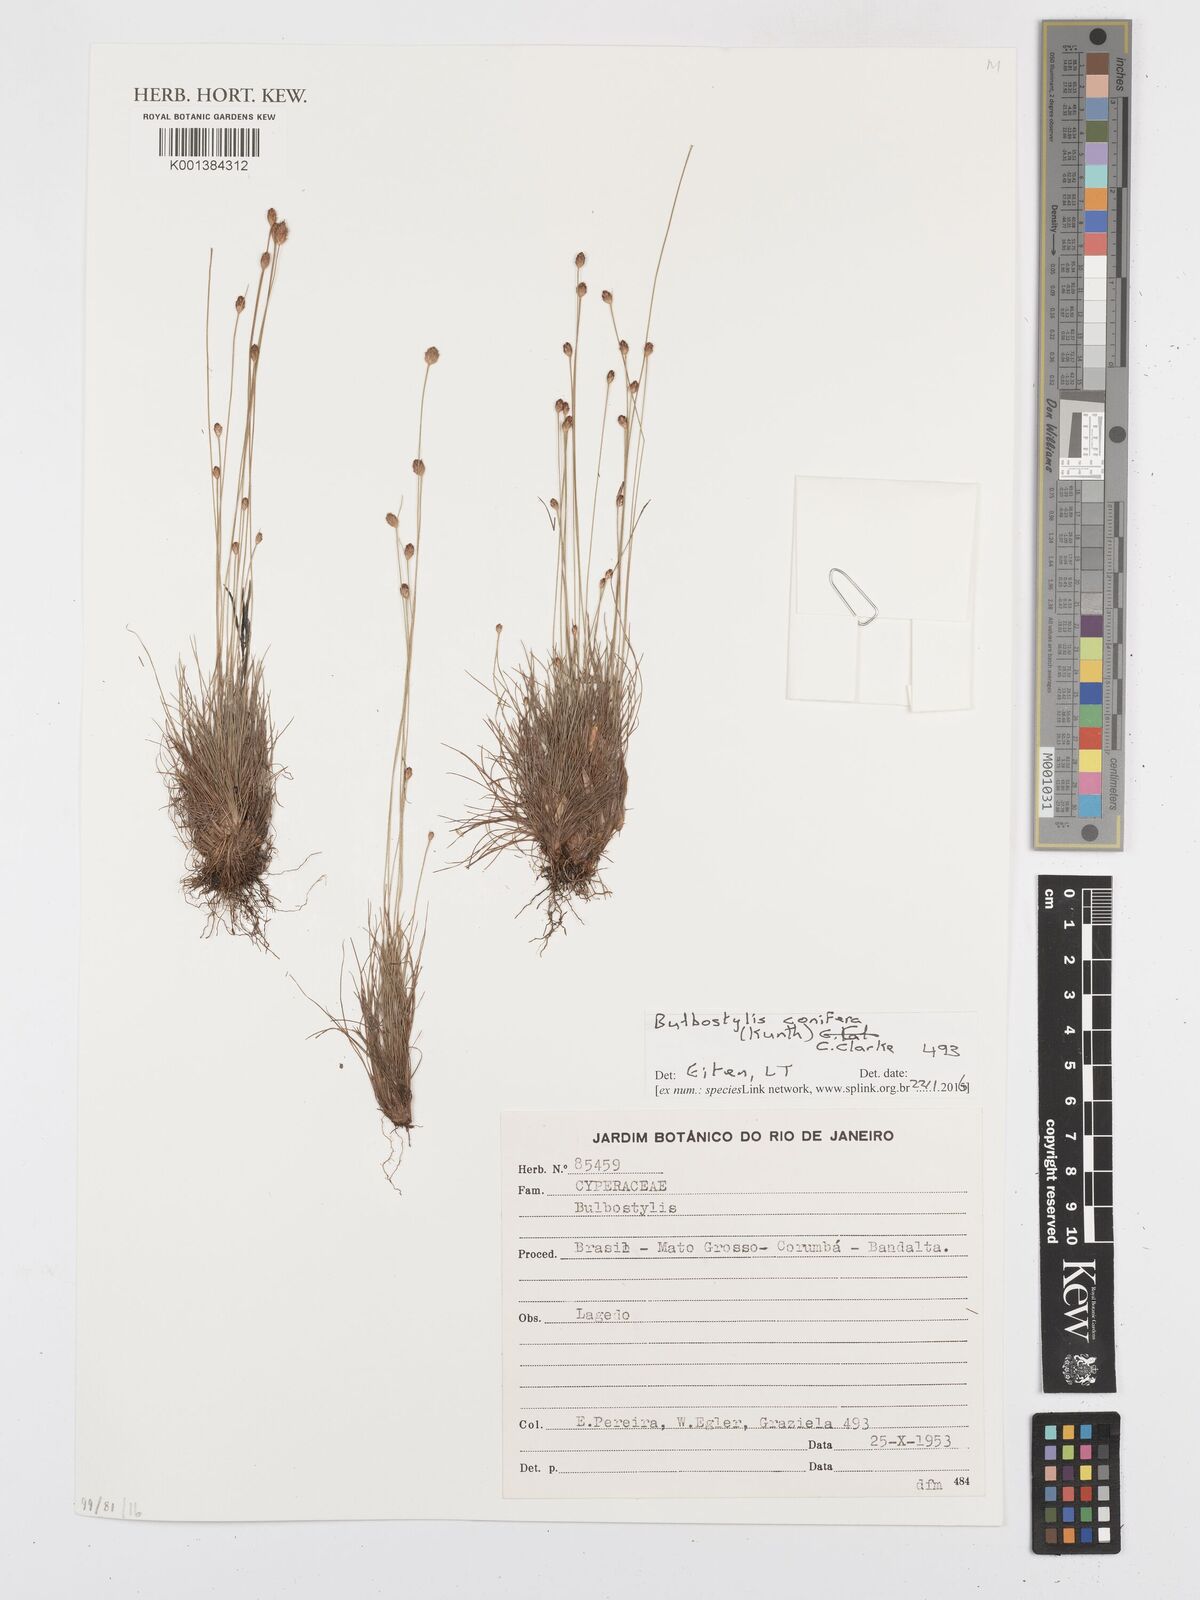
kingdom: Plantae
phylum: Tracheophyta
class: Liliopsida
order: Poales
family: Cyperaceae
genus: Bulbostylis
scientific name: Bulbostylis conifera
